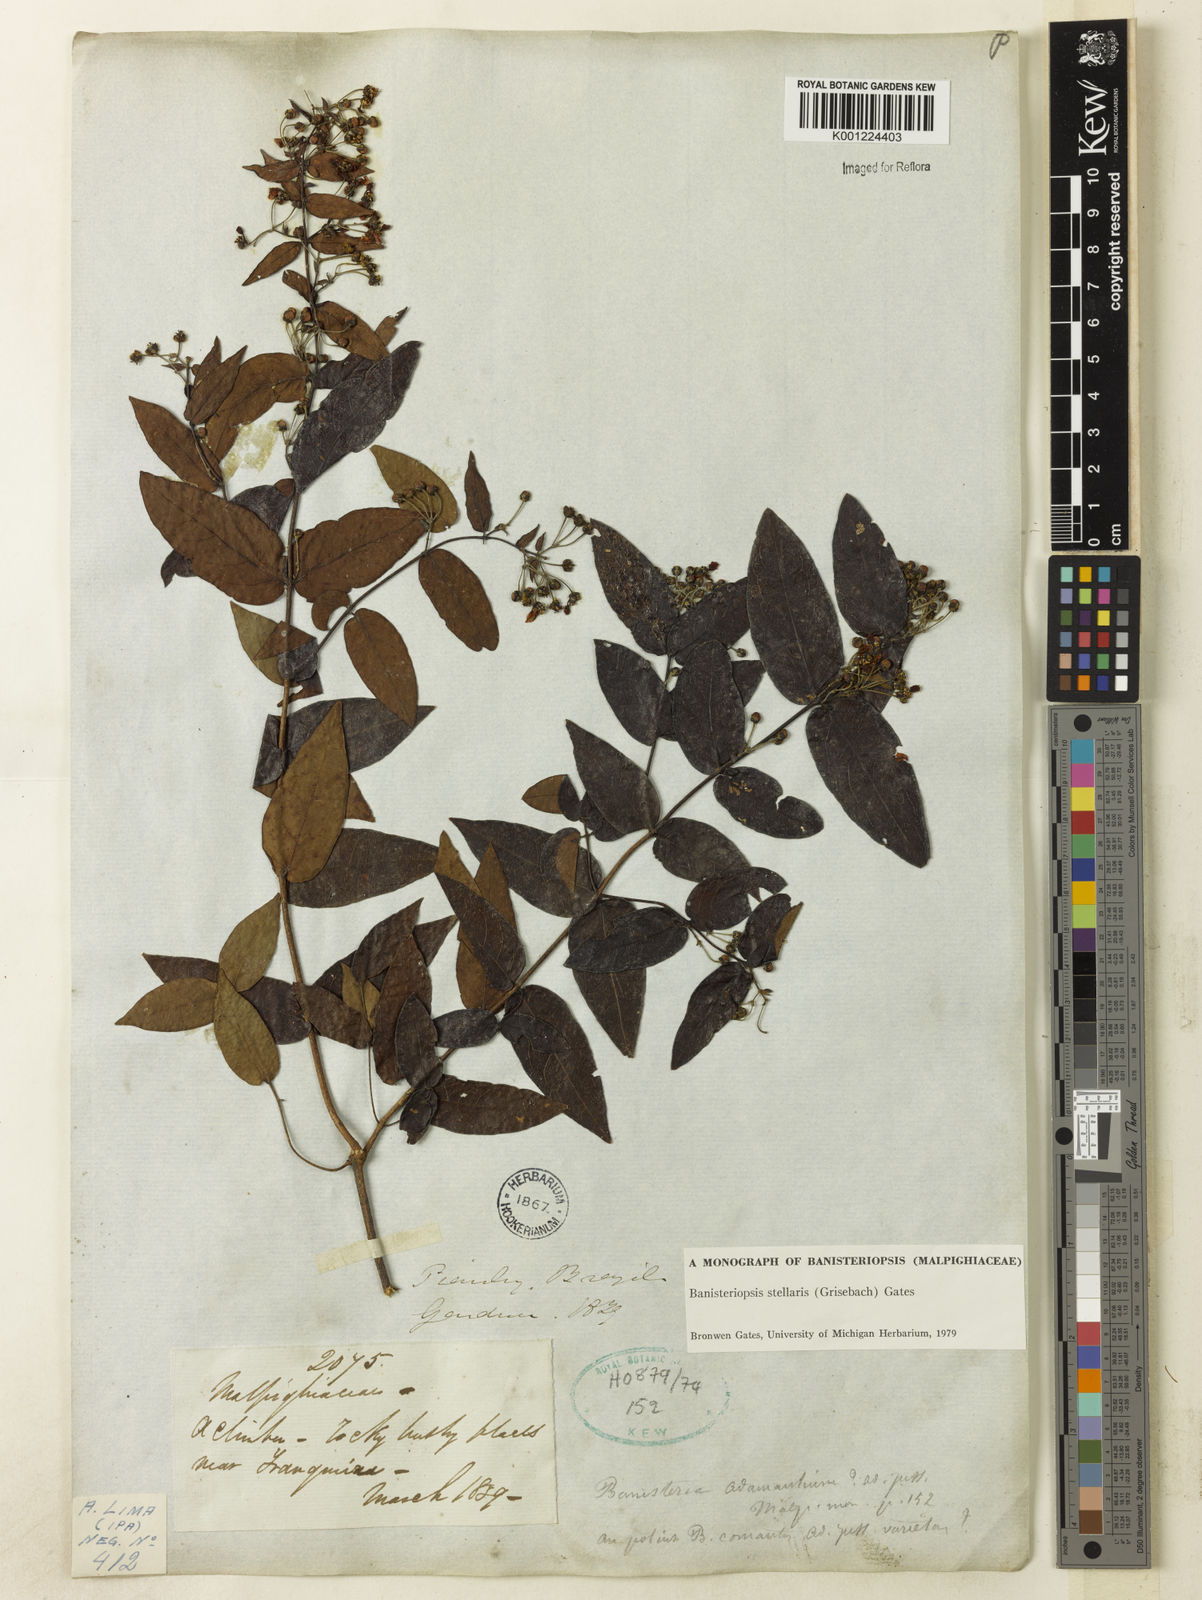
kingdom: Plantae
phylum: Tracheophyta
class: Magnoliopsida
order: Malpighiales
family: Malpighiaceae
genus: Banisteriopsis
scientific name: Banisteriopsis stellaris
